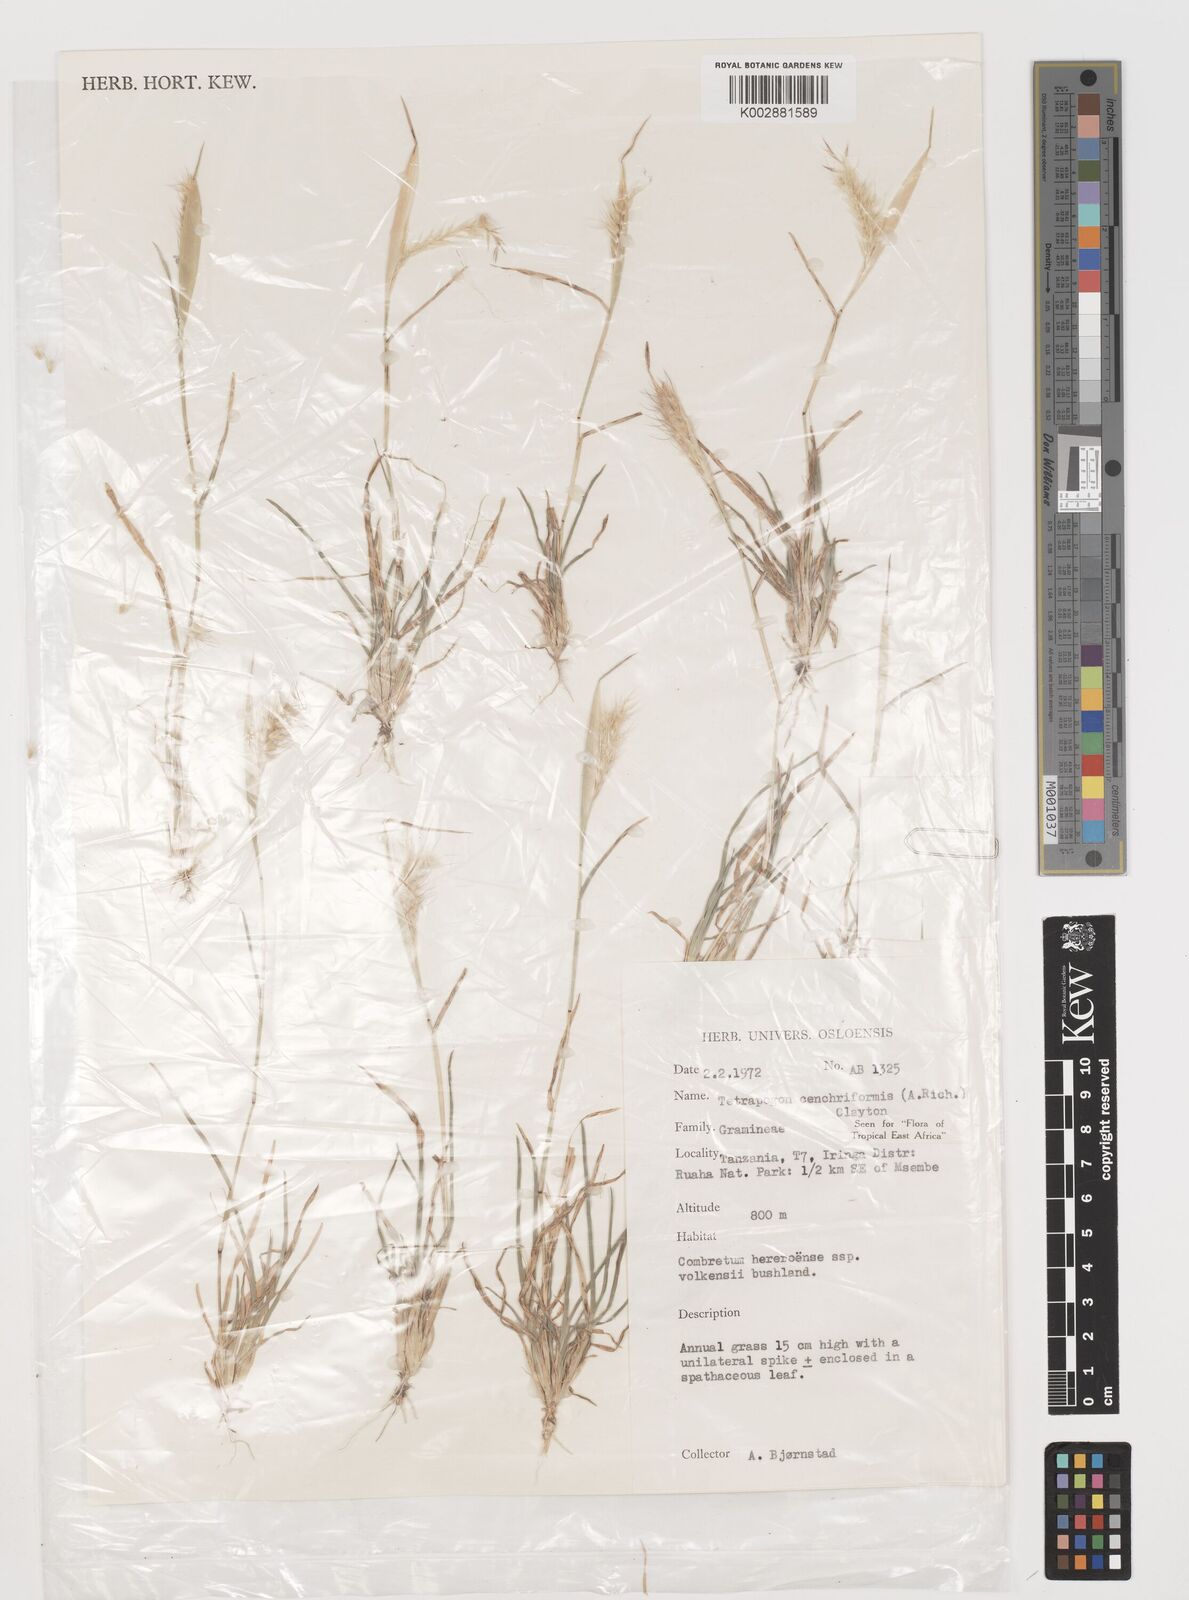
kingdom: Plantae
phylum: Tracheophyta
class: Liliopsida
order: Poales
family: Poaceae
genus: Tetrapogon
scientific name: Tetrapogon cenchriformis
